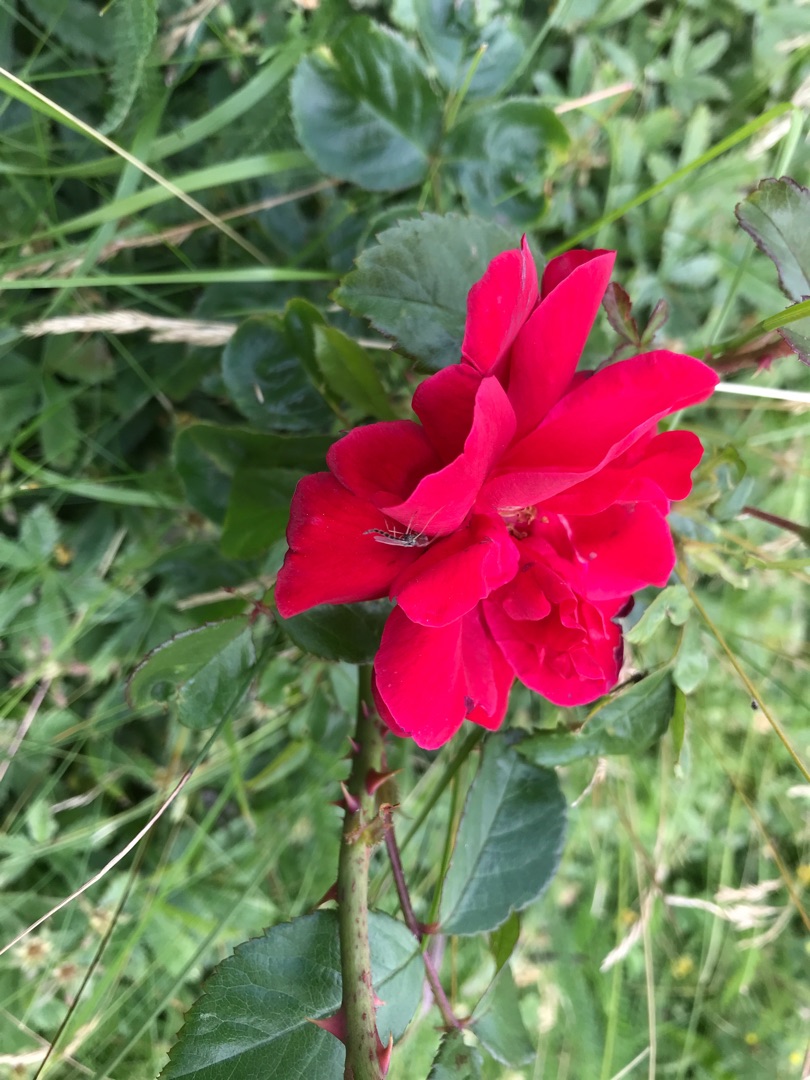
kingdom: Plantae
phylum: Tracheophyta
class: Magnoliopsida
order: Rosales
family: Rosaceae
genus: Rosa
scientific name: Rosa
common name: Roseslægten
